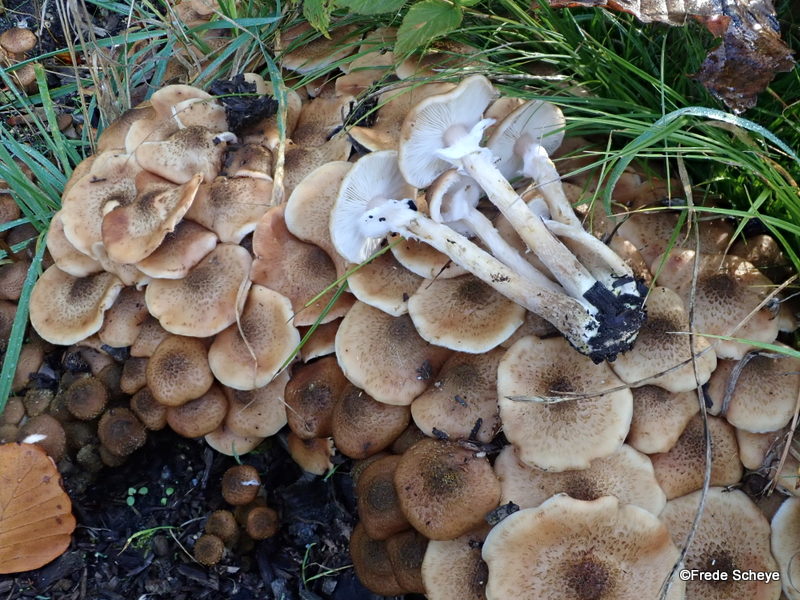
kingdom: Fungi
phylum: Basidiomycota
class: Agaricomycetes
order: Agaricales
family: Physalacriaceae
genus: Armillaria
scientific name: Armillaria lutea
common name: køllestokket honningsvamp
